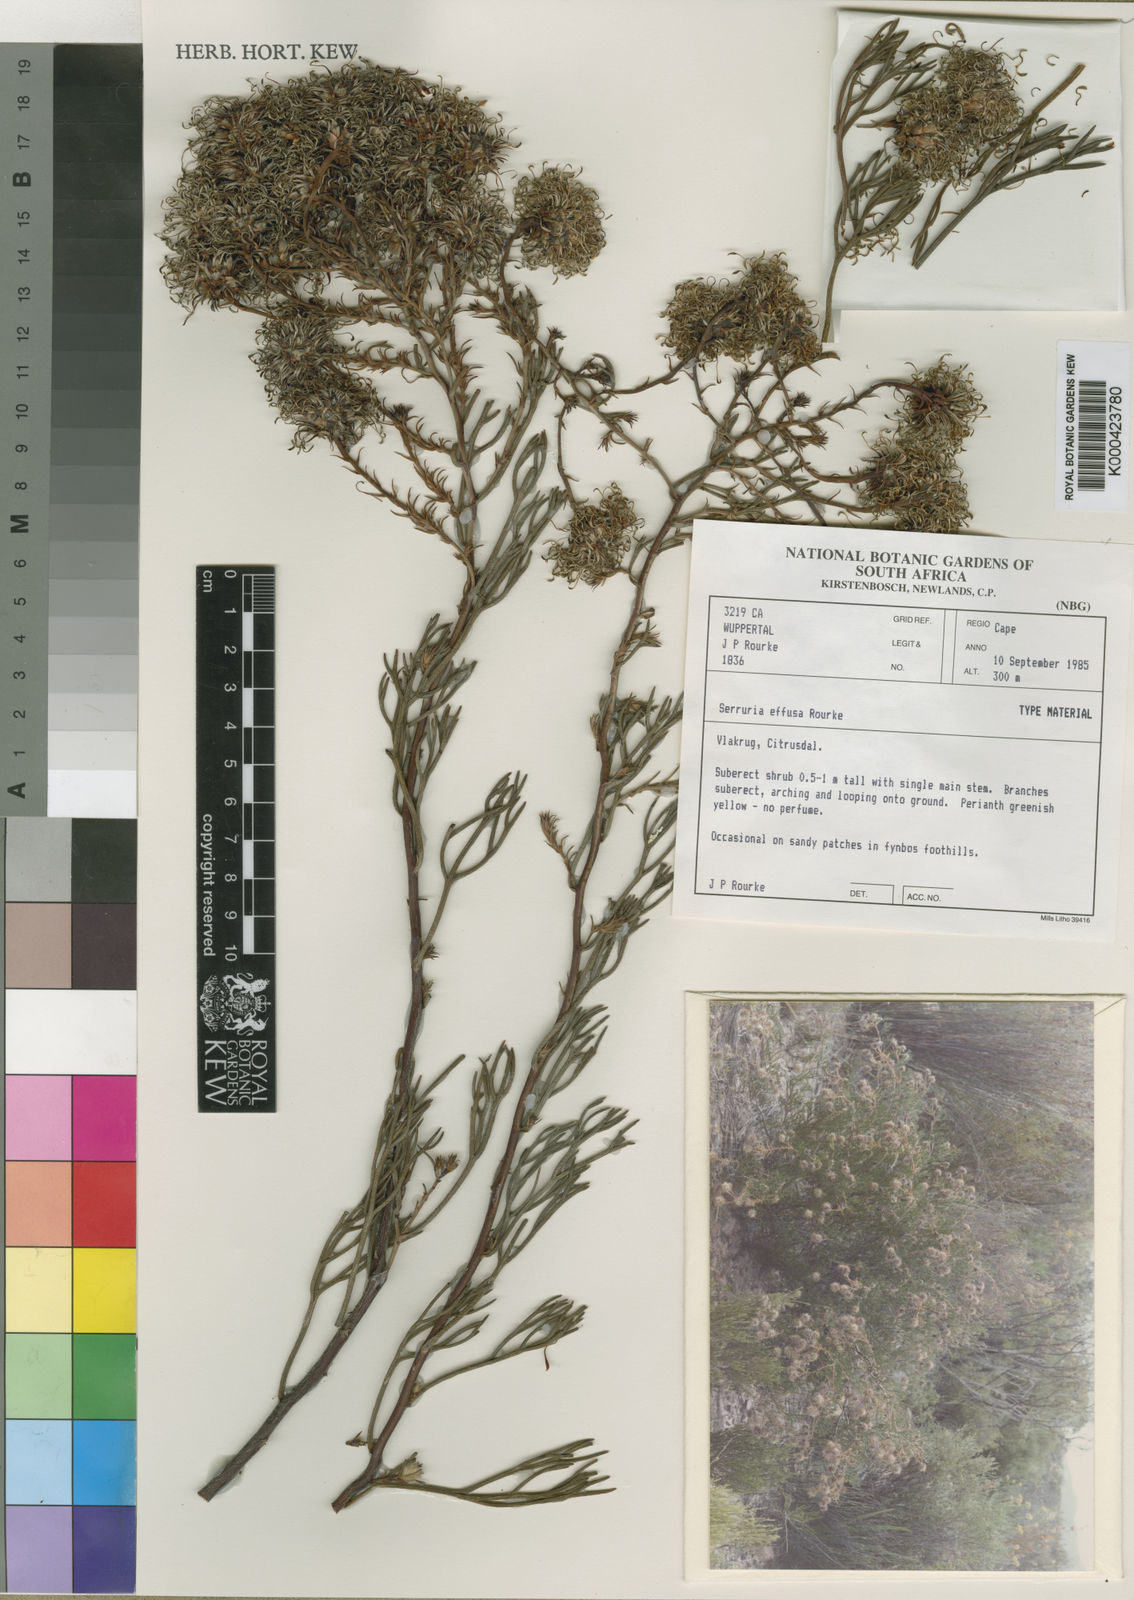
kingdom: Plantae
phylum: Tracheophyta
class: Magnoliopsida
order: Proteales
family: Proteaceae
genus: Serruria
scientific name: Serruria effusa
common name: Candelabra spiderhead
